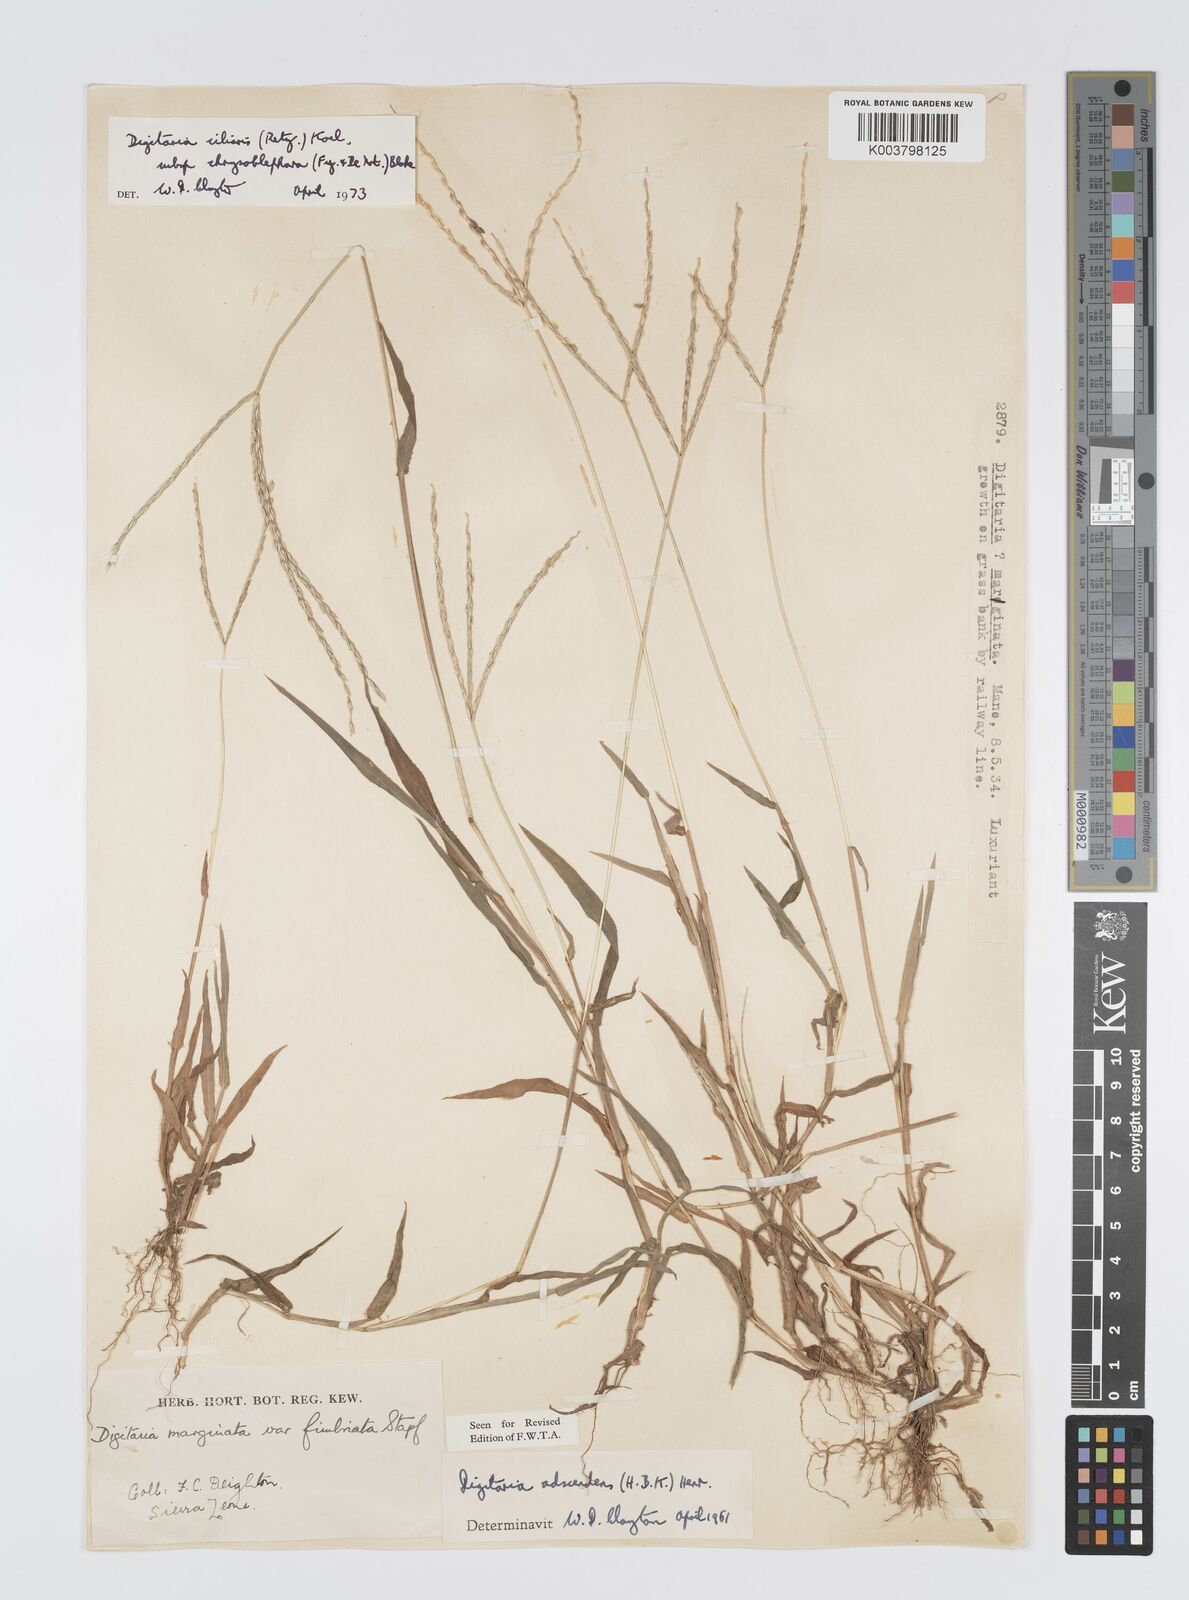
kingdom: Plantae
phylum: Tracheophyta
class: Liliopsida
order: Poales
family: Poaceae
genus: Digitaria
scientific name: Digitaria ciliaris
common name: Tropical finger-grass
